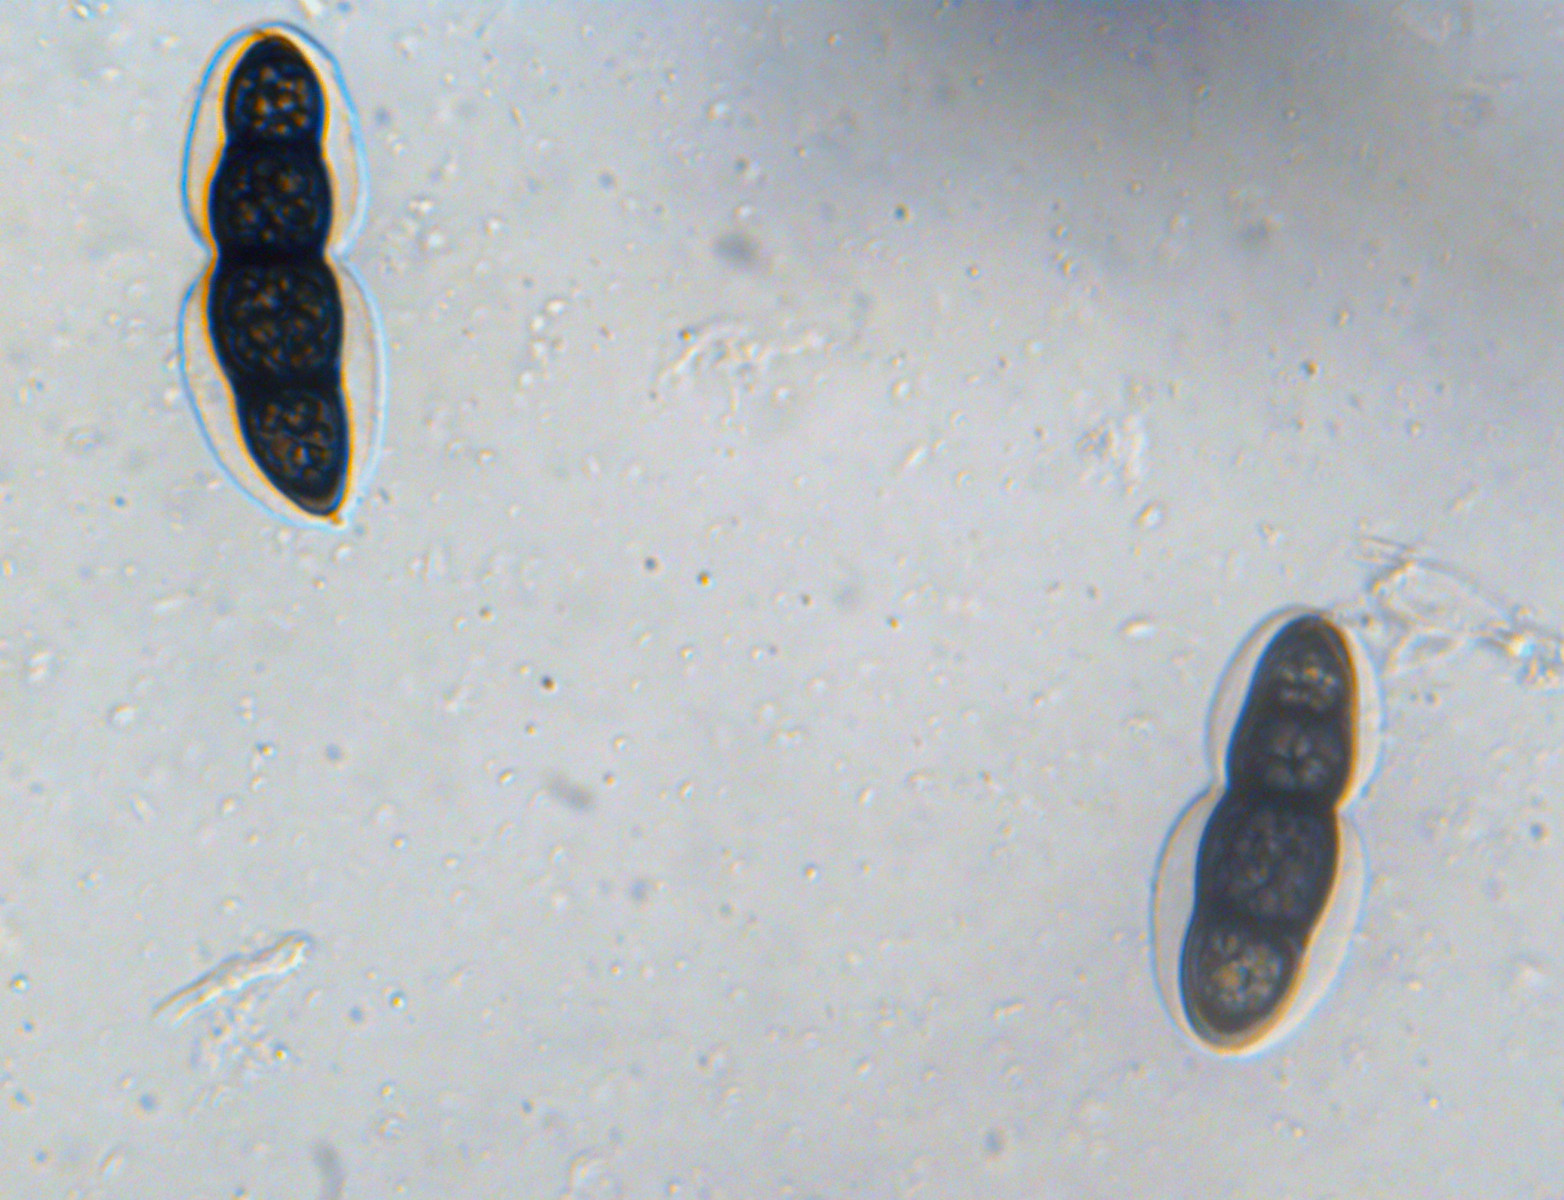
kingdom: Fungi
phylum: Ascomycota
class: Dothideomycetes
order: Pleosporales
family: Massarinaceae
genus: Pseudosplanchnonema
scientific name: Pseudosplanchnonema phorcioides
